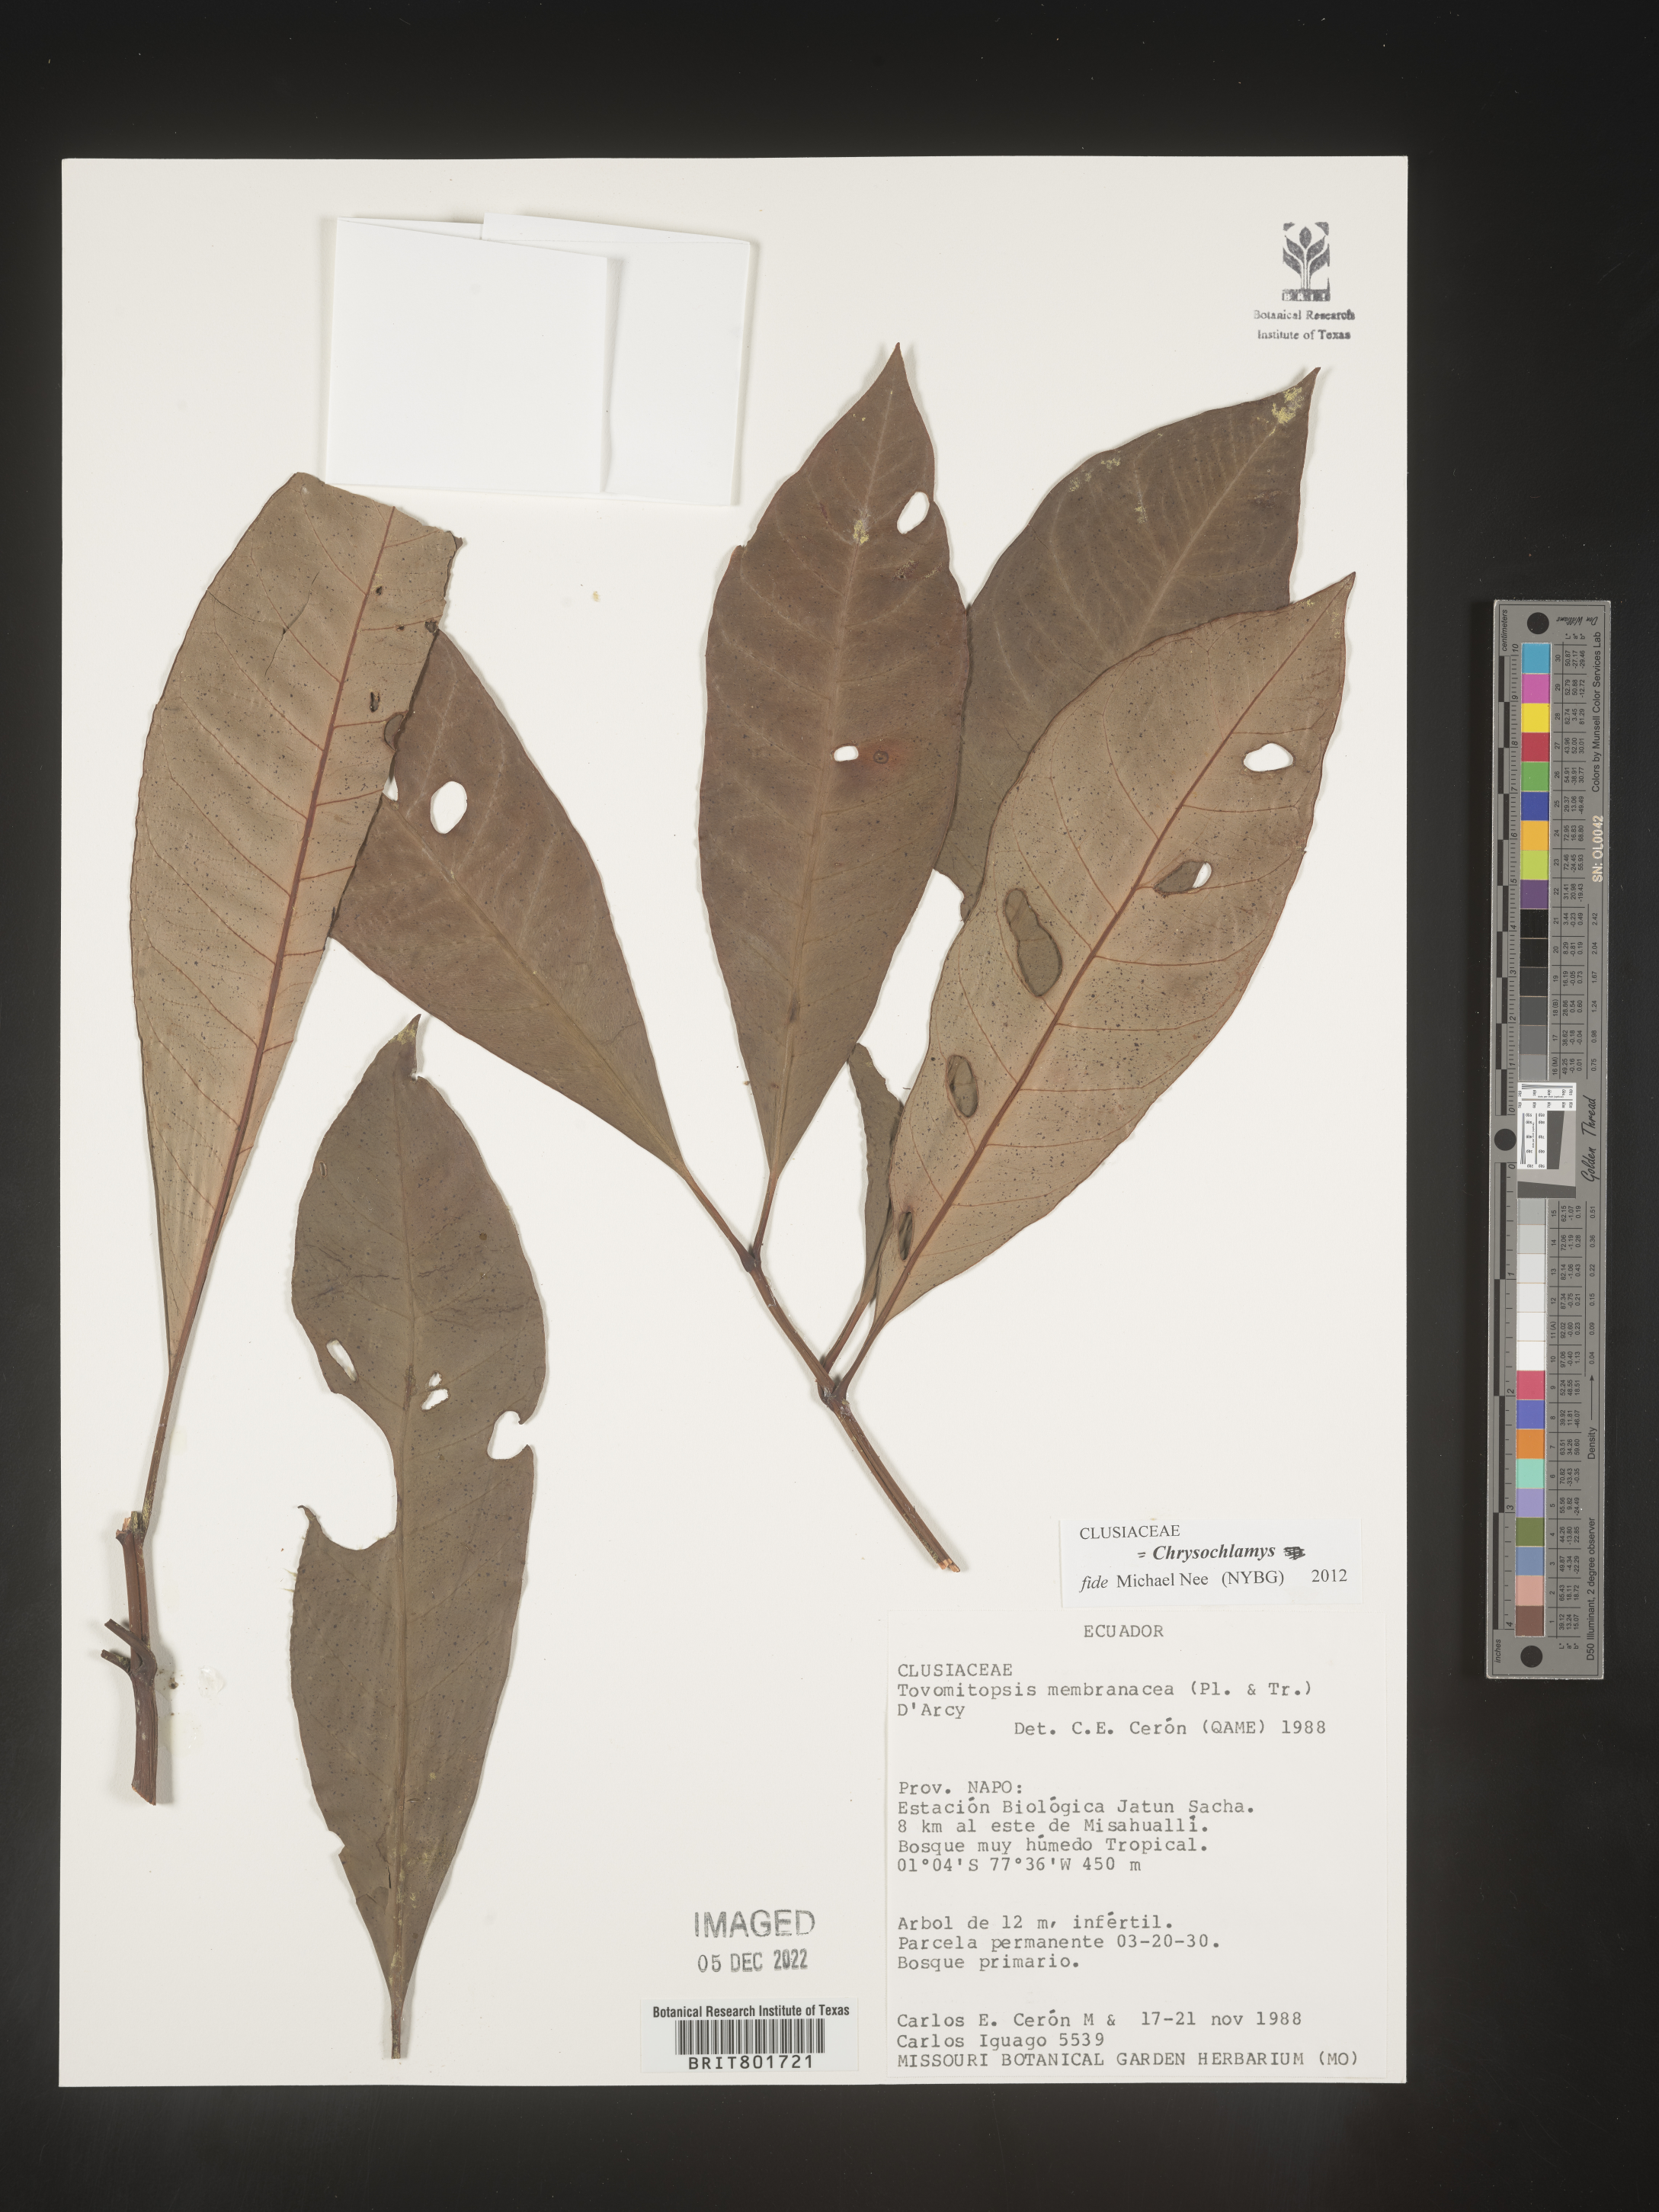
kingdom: Plantae
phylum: Tracheophyta
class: Magnoliopsida
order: Malpighiales
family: Clusiaceae
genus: Chrysochlamys
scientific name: Chrysochlamys membranacea
